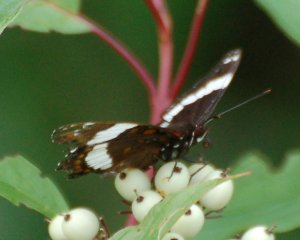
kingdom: Animalia
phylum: Arthropoda
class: Insecta
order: Lepidoptera
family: Nymphalidae
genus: Limenitis
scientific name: Limenitis arthemis
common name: Red-spotted Admiral
